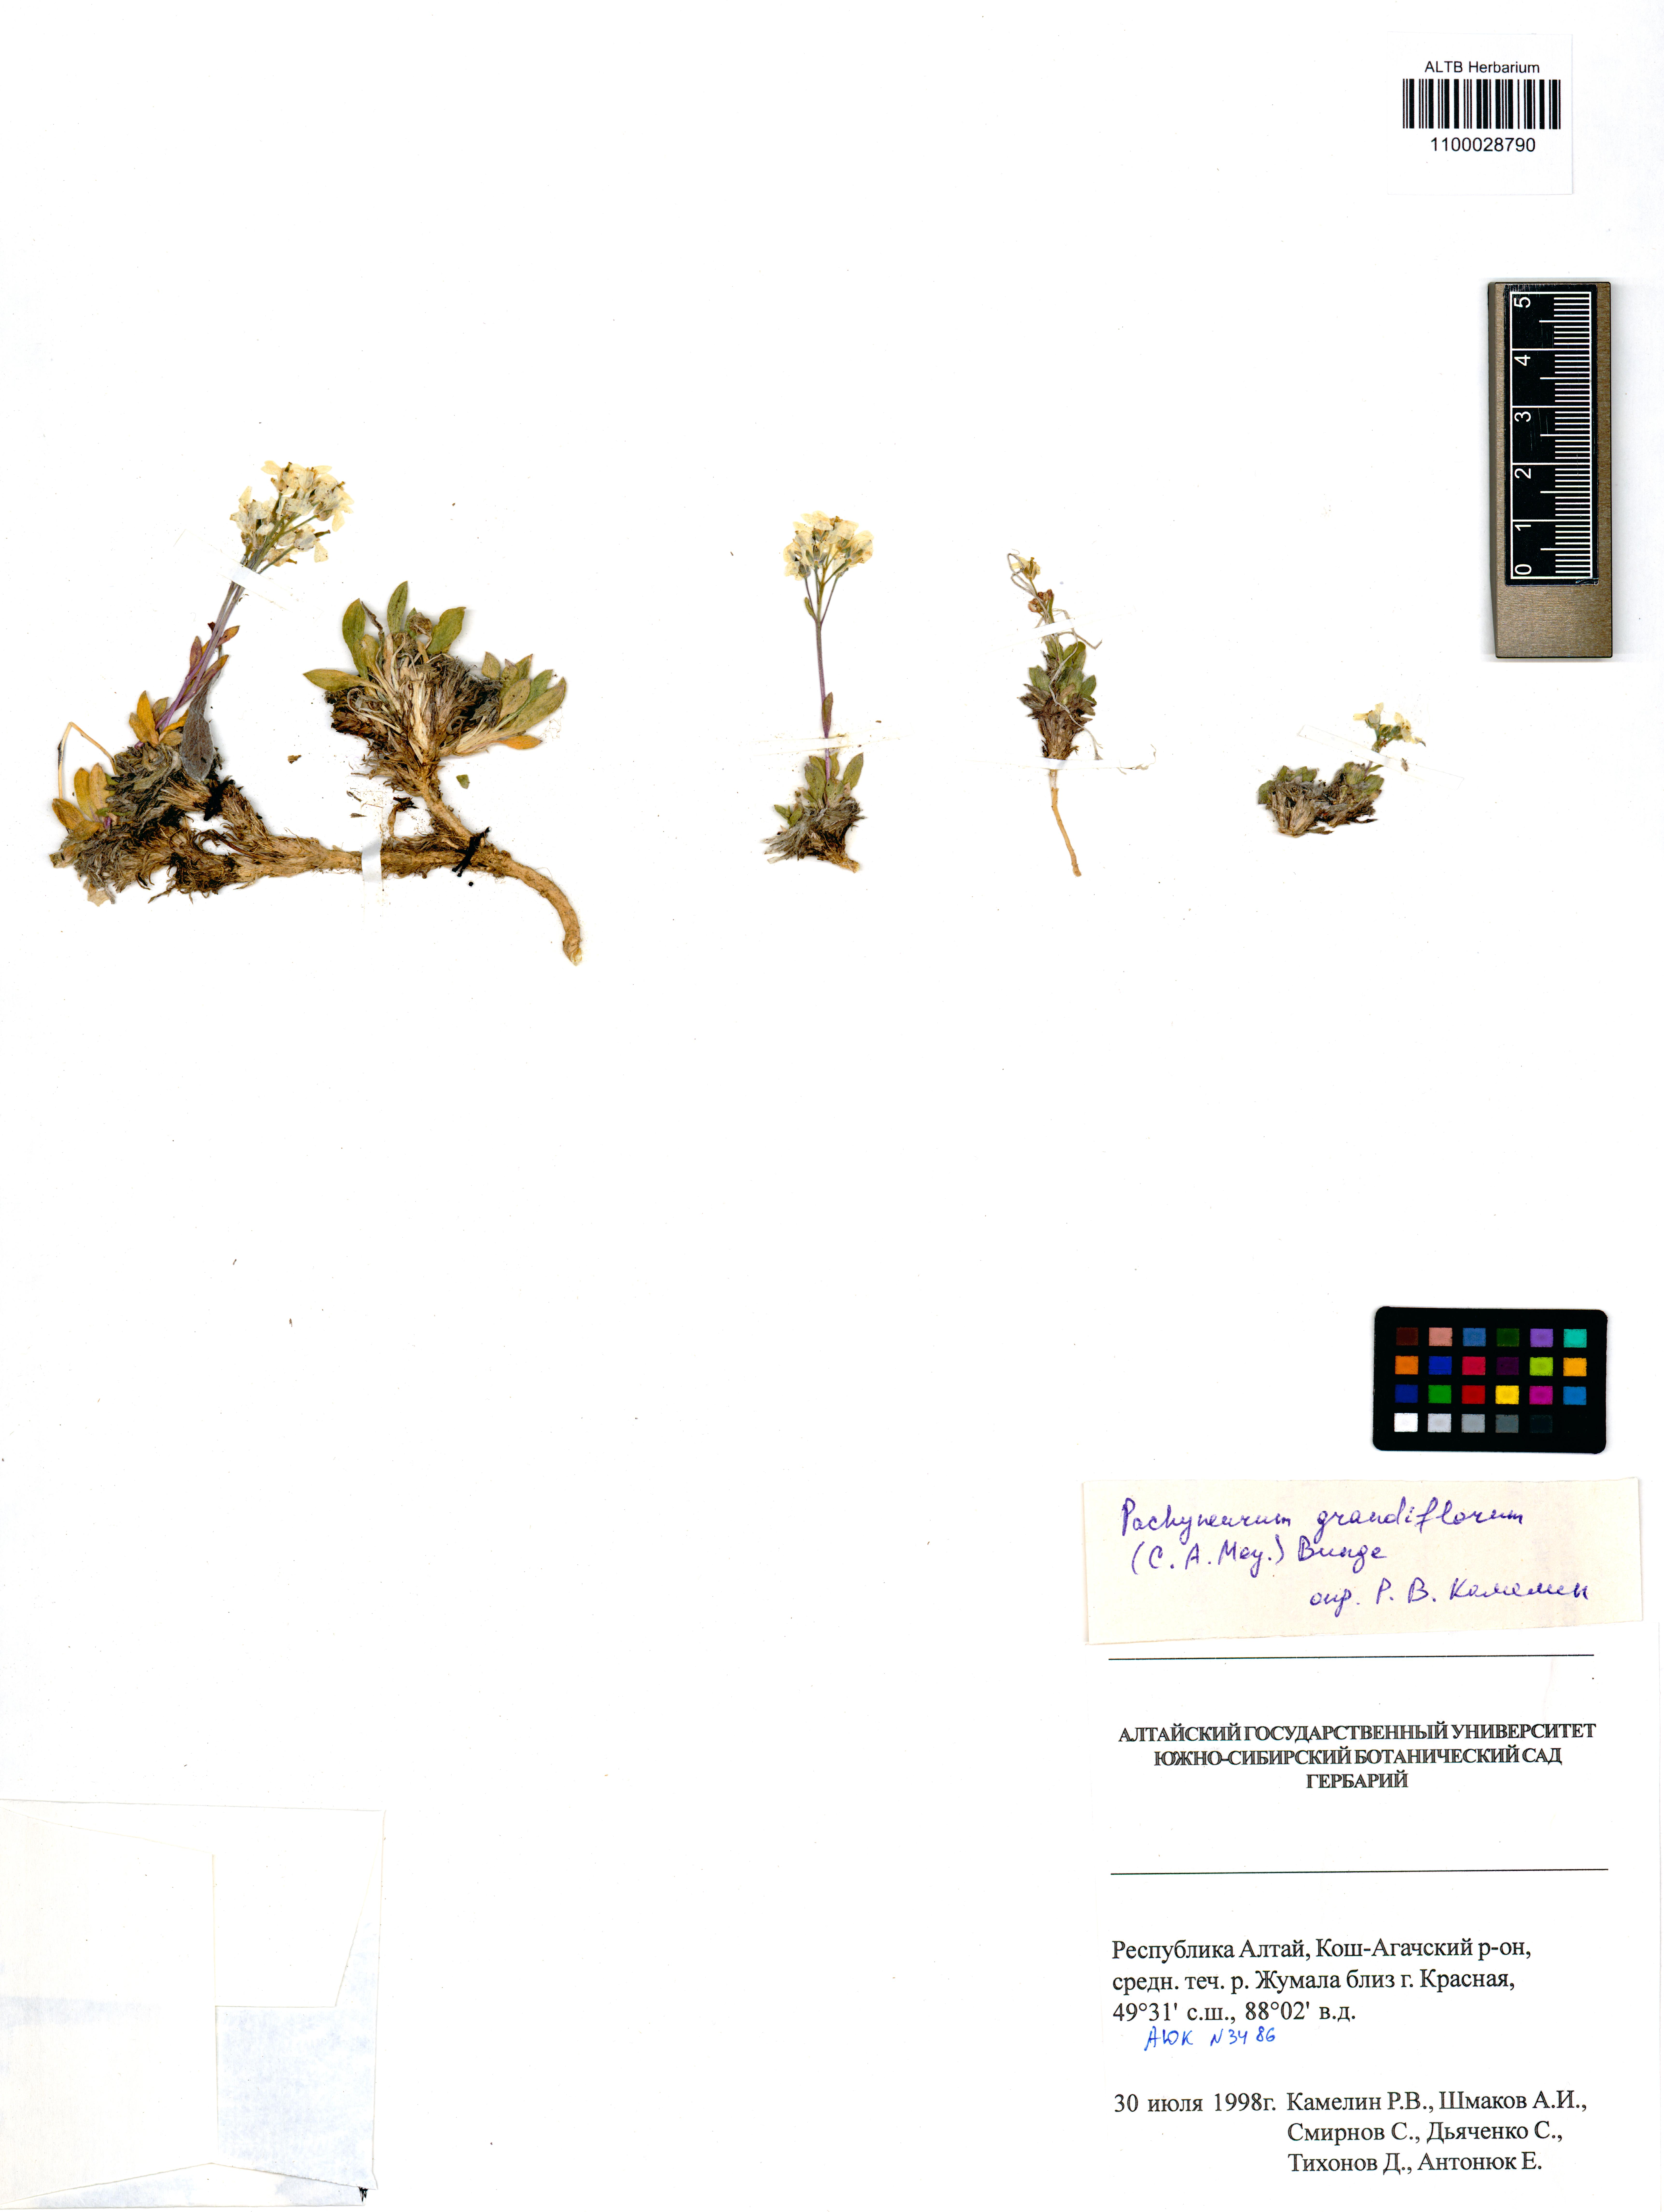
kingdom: Plantae
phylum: Tracheophyta
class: Magnoliopsida
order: Brassicales
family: Brassicaceae
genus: Pachyneurum
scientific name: Pachyneurum grandiflorum
